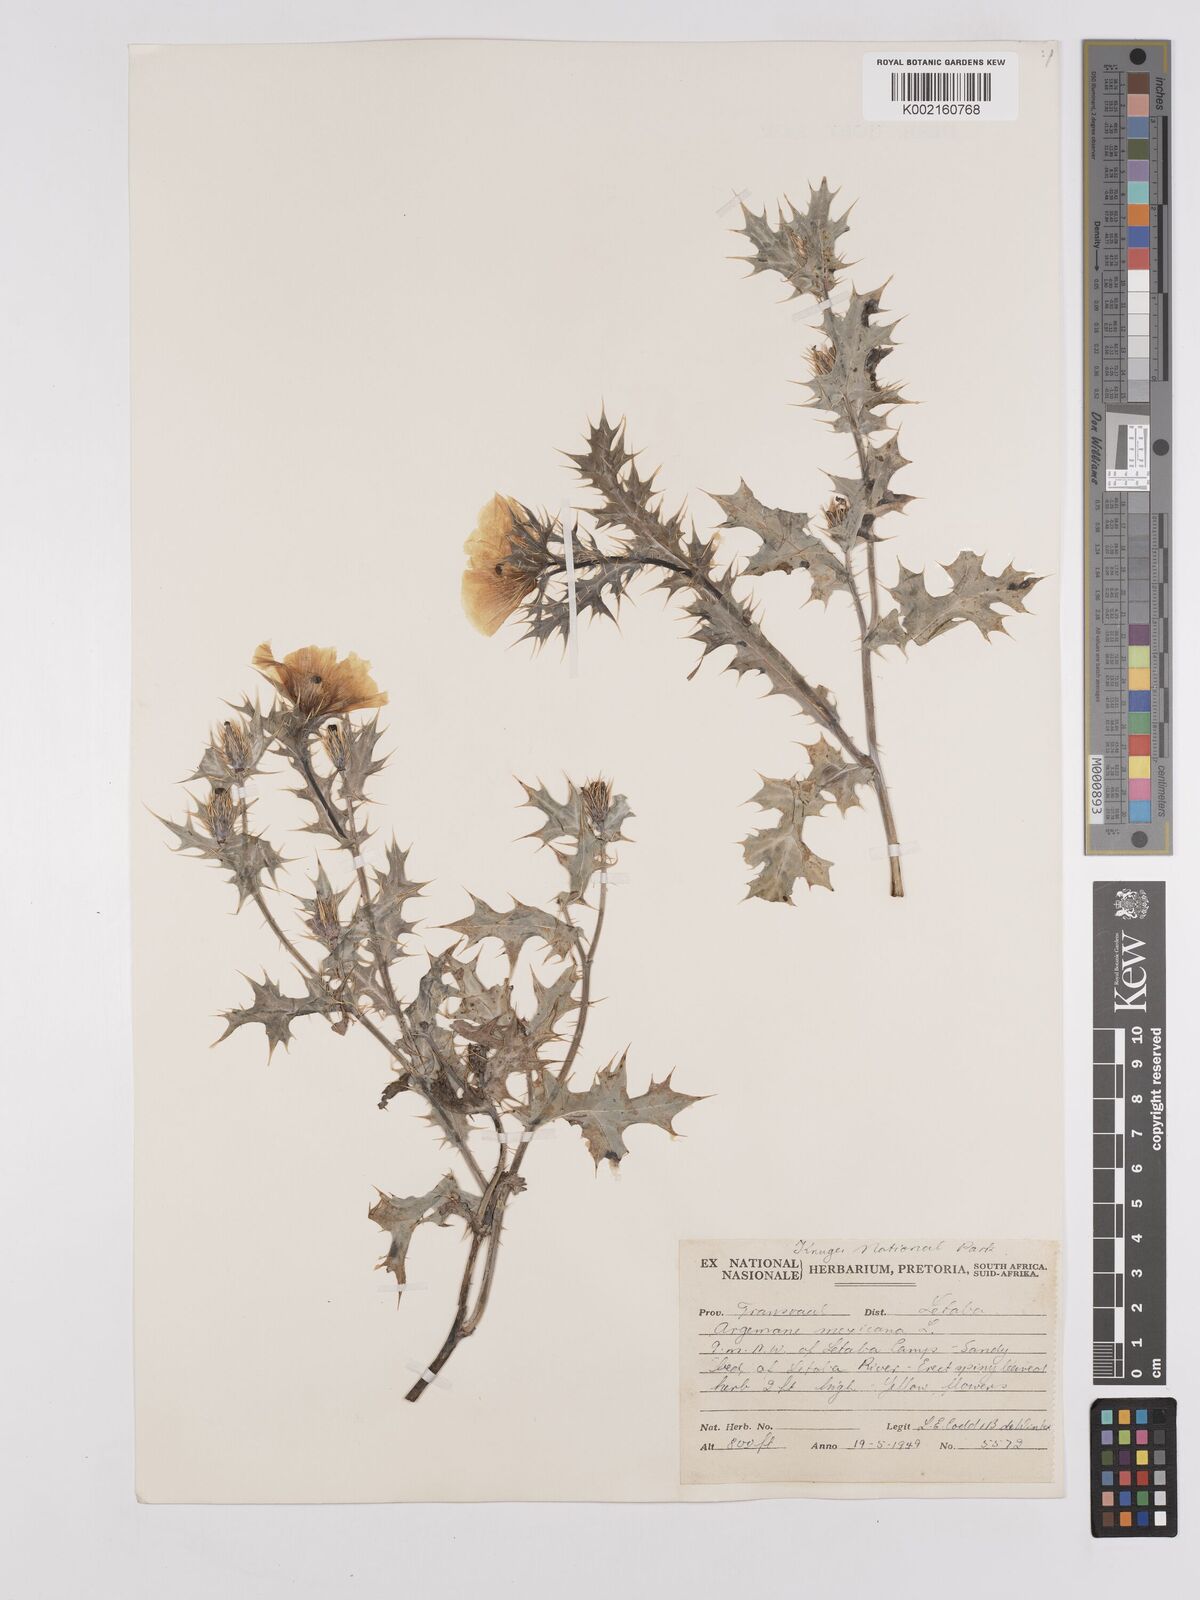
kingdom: Plantae
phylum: Tracheophyta
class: Magnoliopsida
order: Ranunculales
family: Papaveraceae
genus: Argemone
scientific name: Argemone mexicana
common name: Mexican poppy
